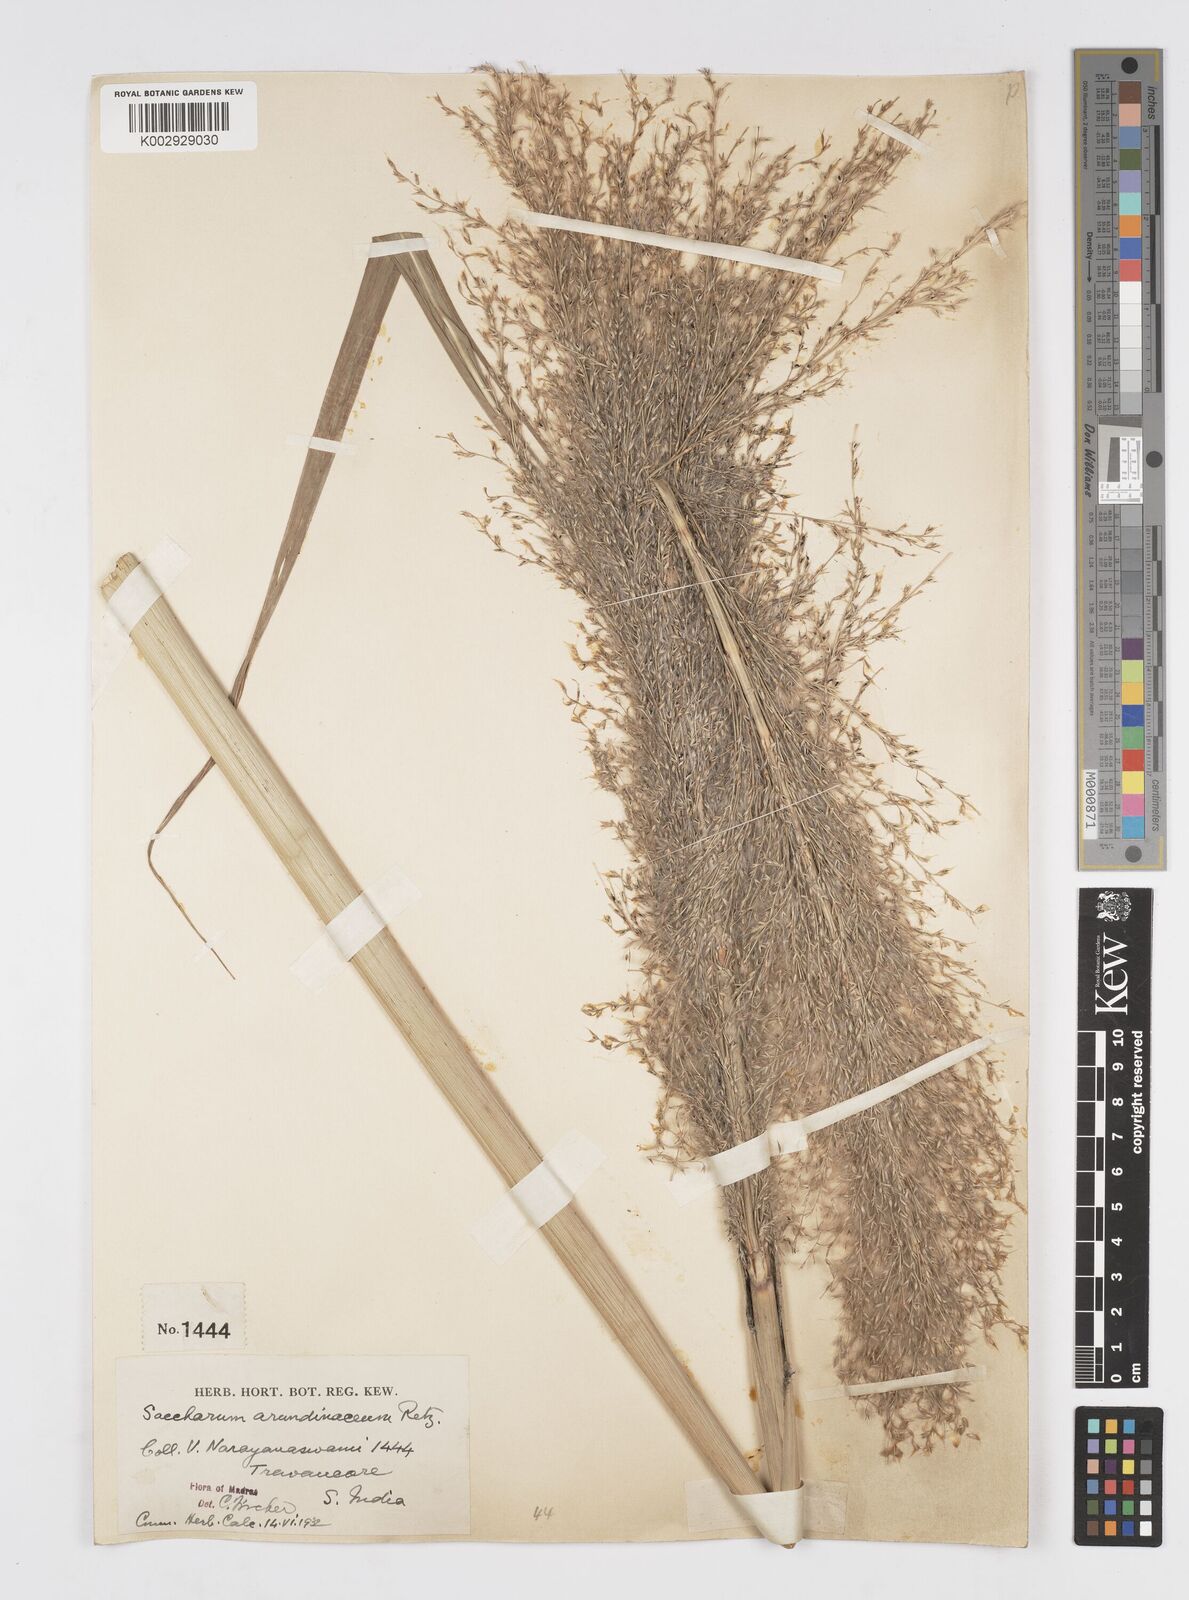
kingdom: Plantae
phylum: Tracheophyta
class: Liliopsida
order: Poales
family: Poaceae
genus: Tripidium
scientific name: Tripidium arundinaceum
